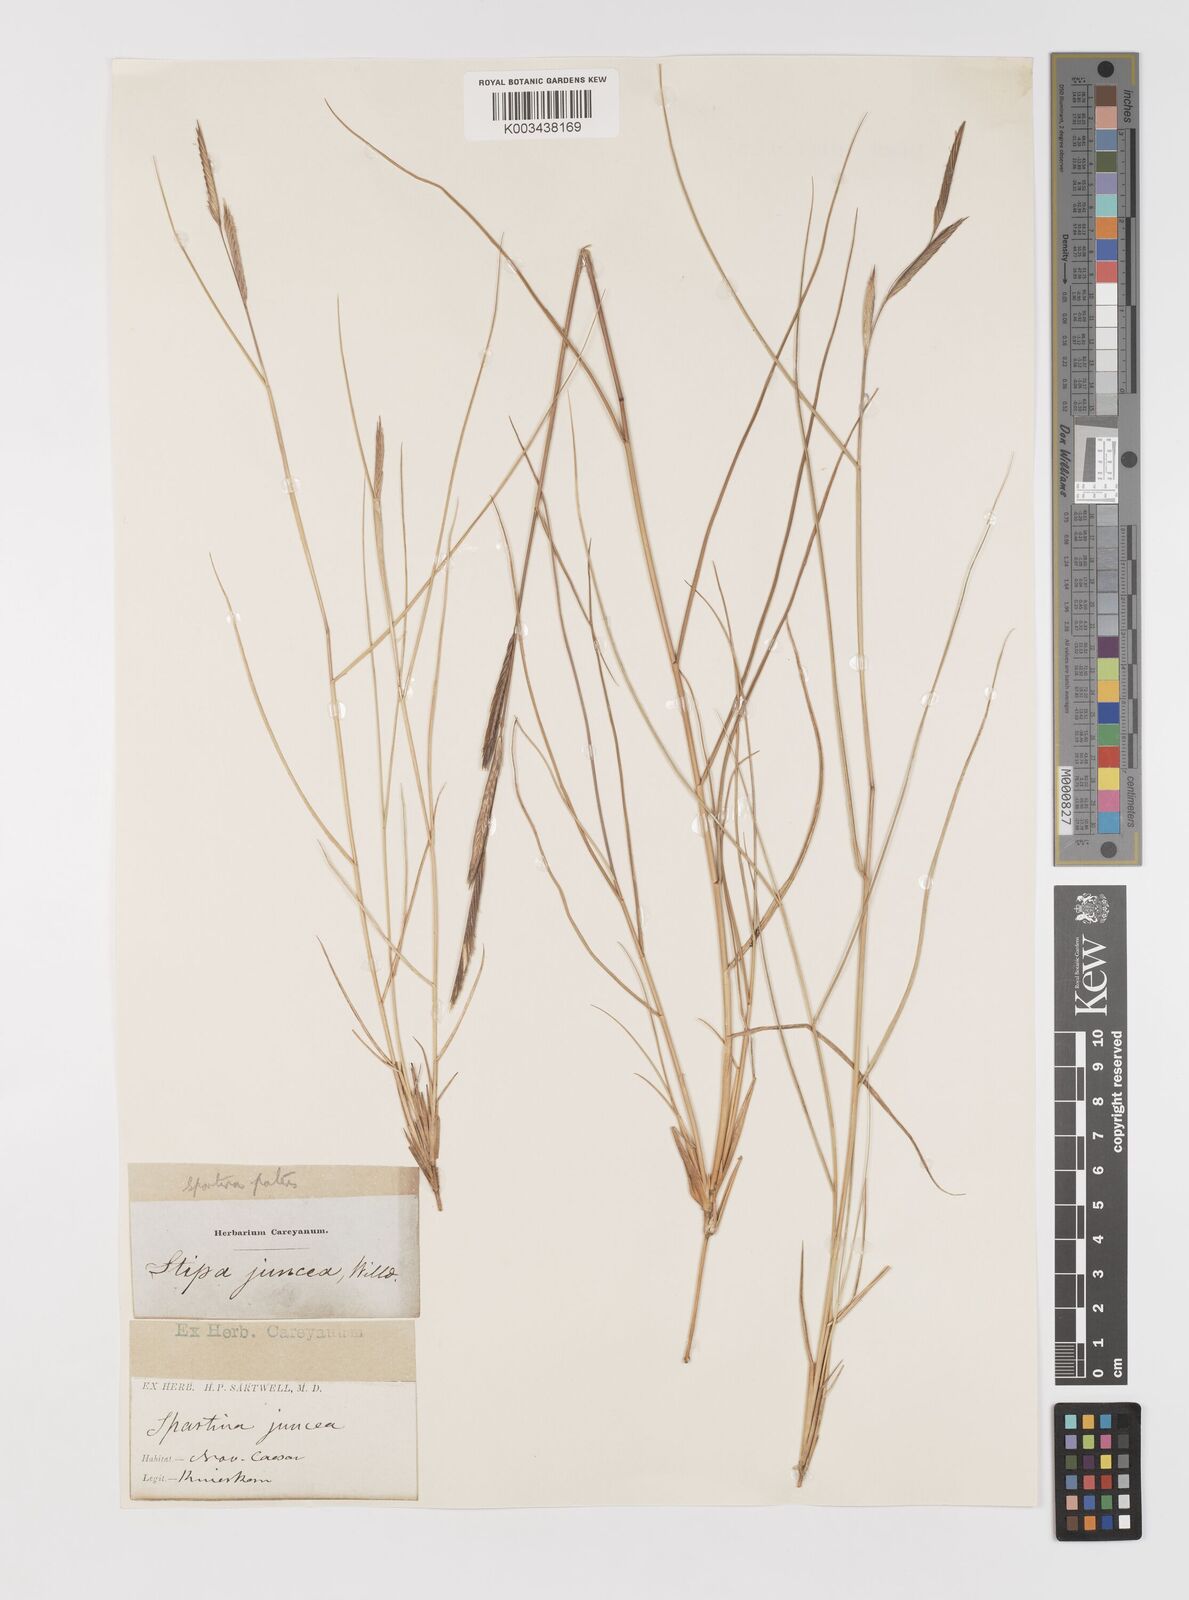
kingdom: Plantae
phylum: Tracheophyta
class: Liliopsida
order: Poales
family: Poaceae
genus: Sporobolus
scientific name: Sporobolus pumilus
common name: Highwater grass
